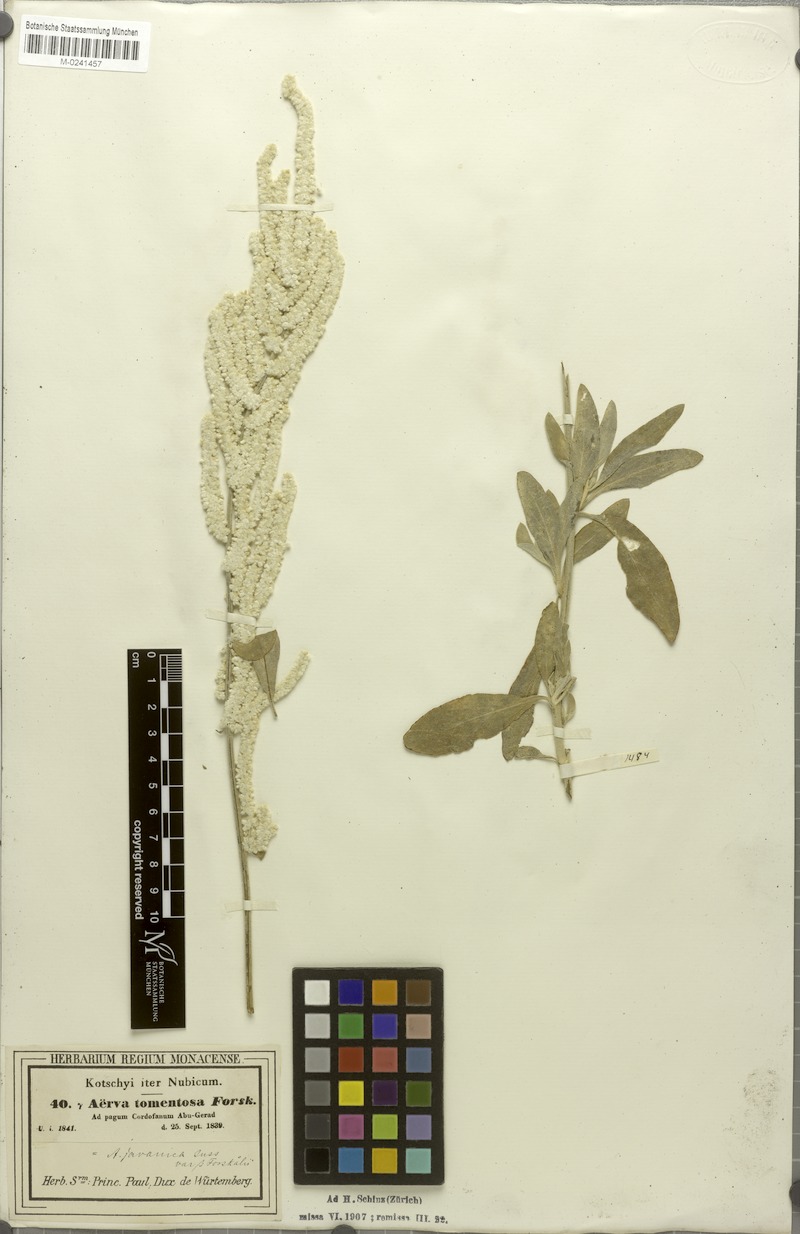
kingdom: Plantae
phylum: Tracheophyta
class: Magnoliopsida
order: Caryophyllales
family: Amaranthaceae
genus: Aerva
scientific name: Aerva javanica
